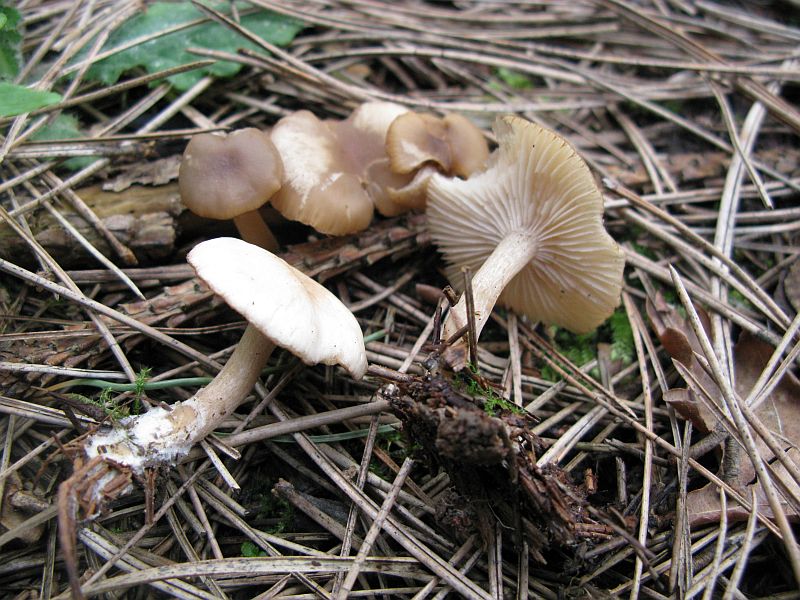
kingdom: Fungi
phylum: Basidiomycota
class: Agaricomycetes
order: Agaricales
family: Tricholomataceae
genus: Clitocybe
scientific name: Clitocybe fragrans
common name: vellugtende tragthat
